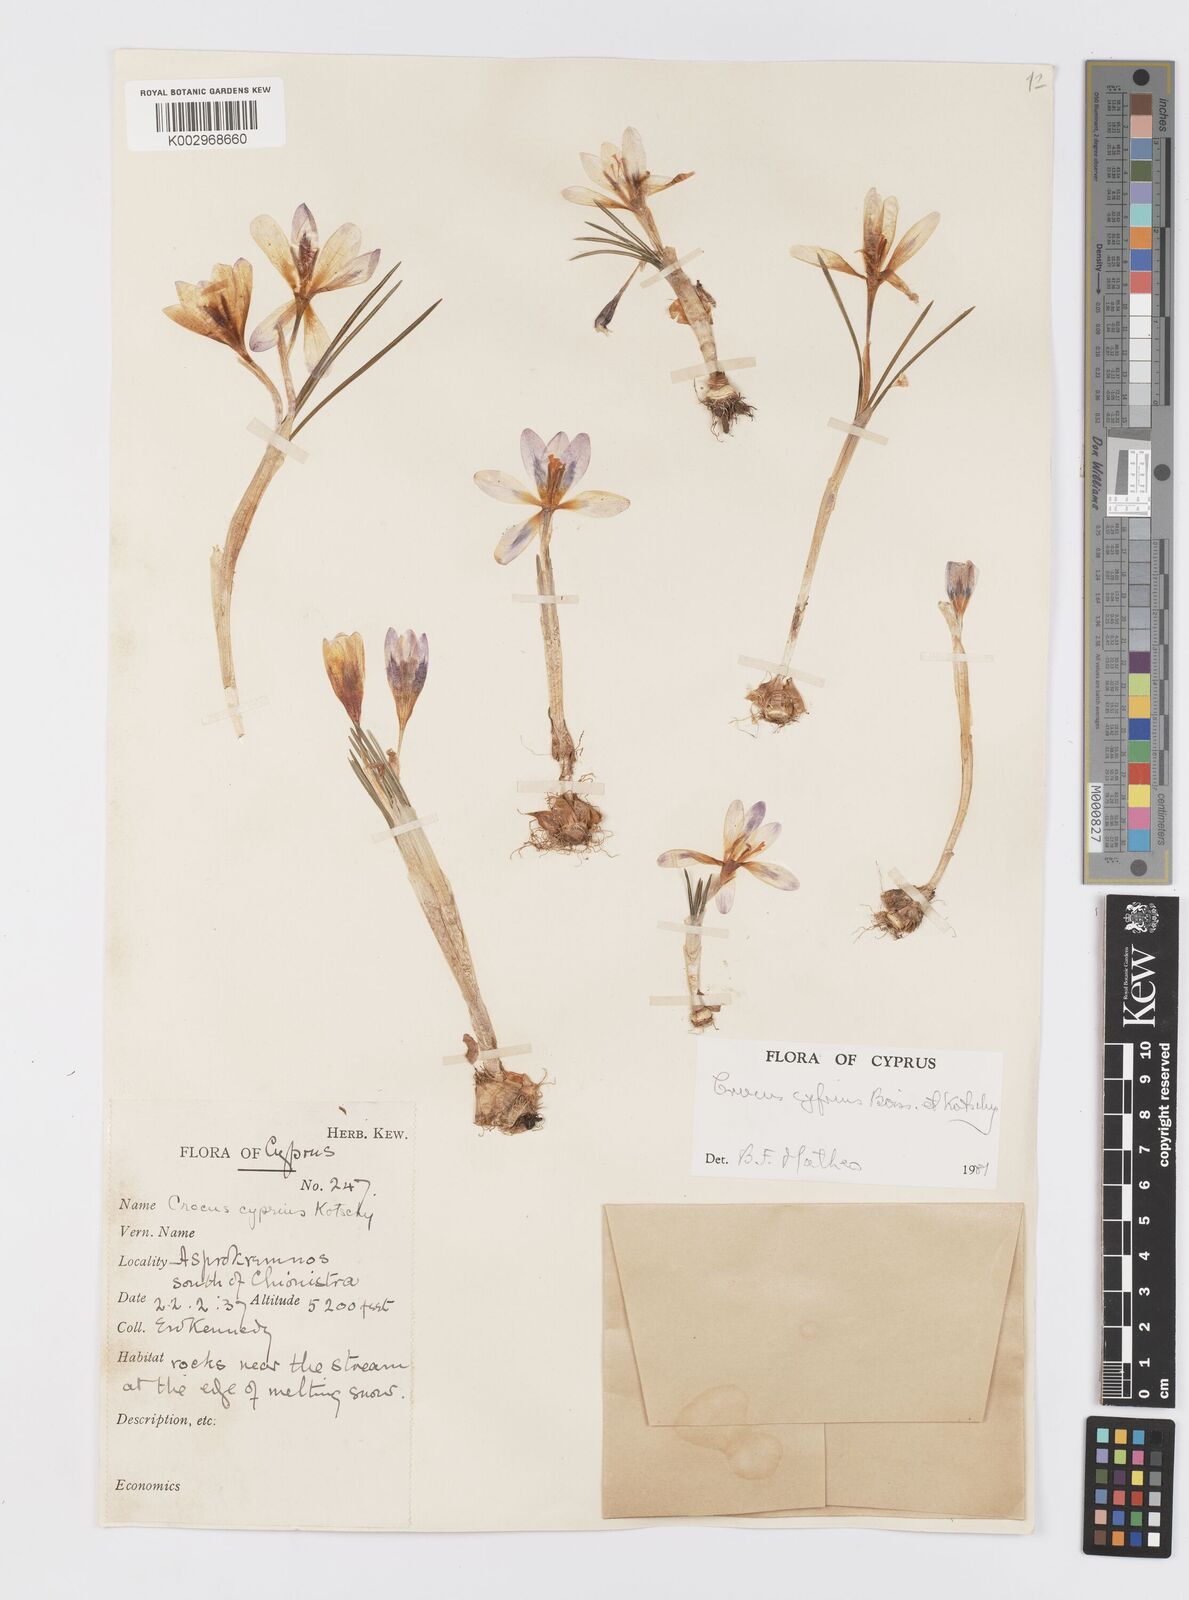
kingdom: Plantae
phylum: Tracheophyta
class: Liliopsida
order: Asparagales
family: Iridaceae
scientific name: Iridaceae
